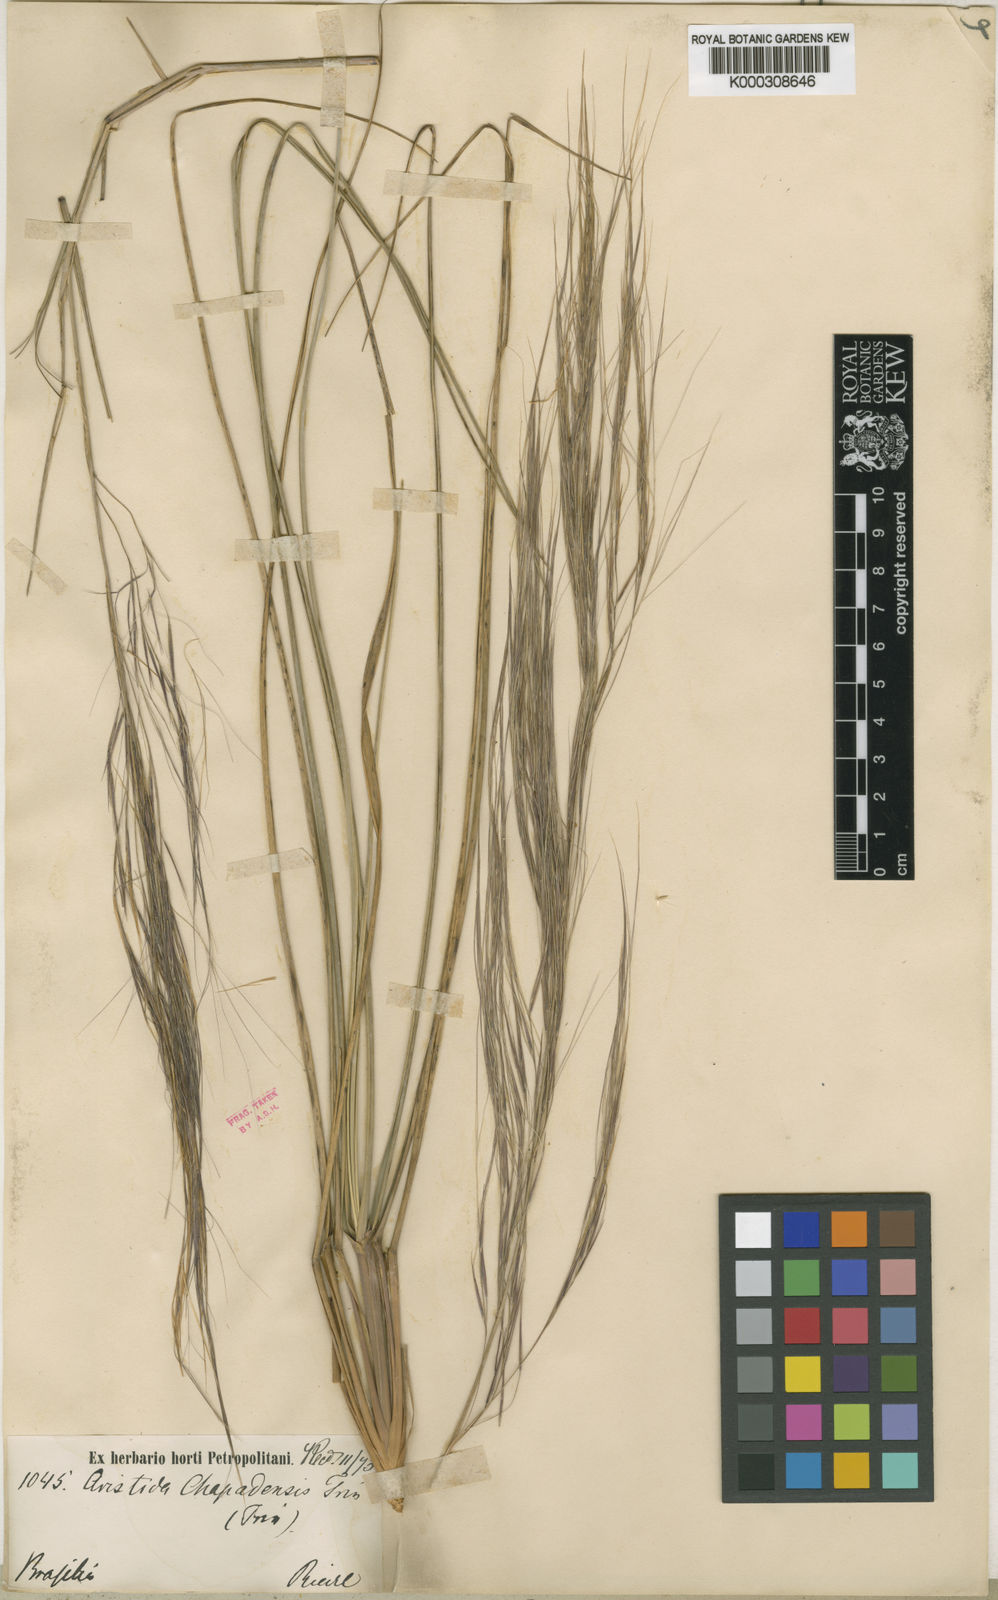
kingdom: Plantae
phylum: Tracheophyta
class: Liliopsida
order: Poales
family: Poaceae
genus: Aristida
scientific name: Aristida chapadensis
